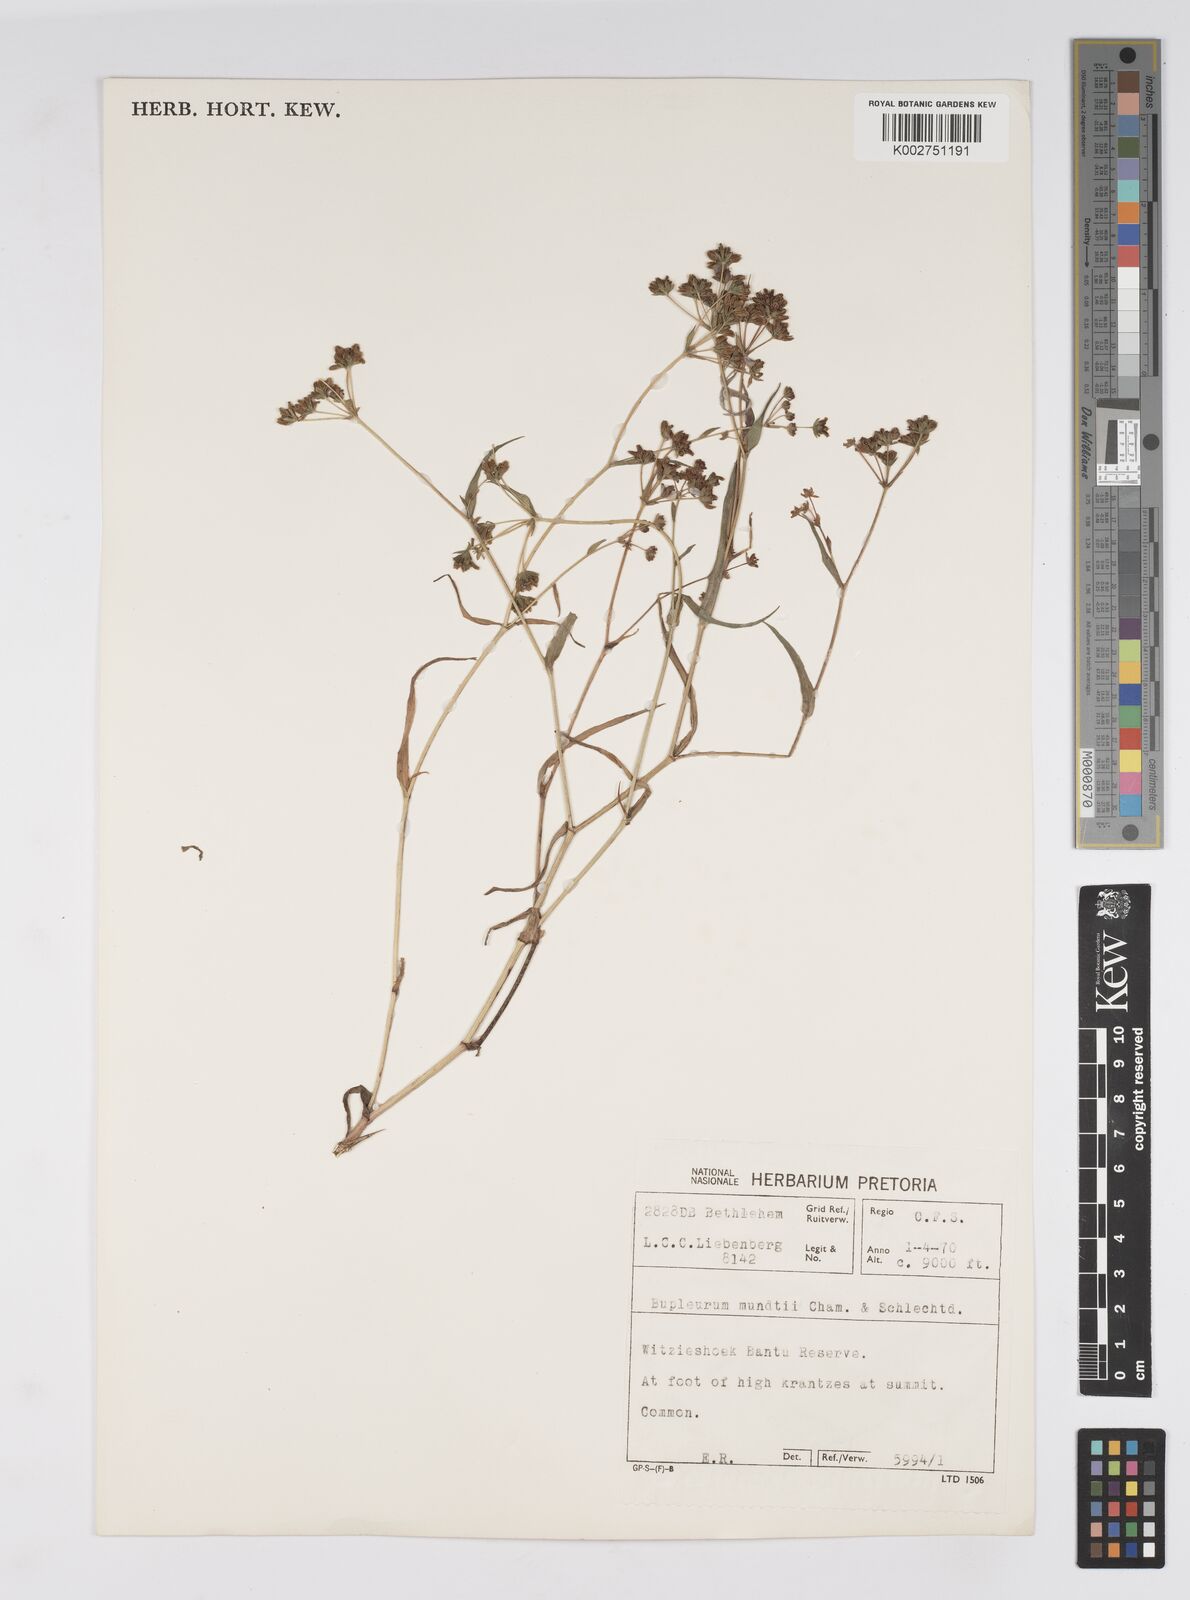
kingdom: Plantae
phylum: Tracheophyta
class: Magnoliopsida
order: Apiales
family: Apiaceae
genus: Bupleurum
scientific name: Bupleurum mundii
